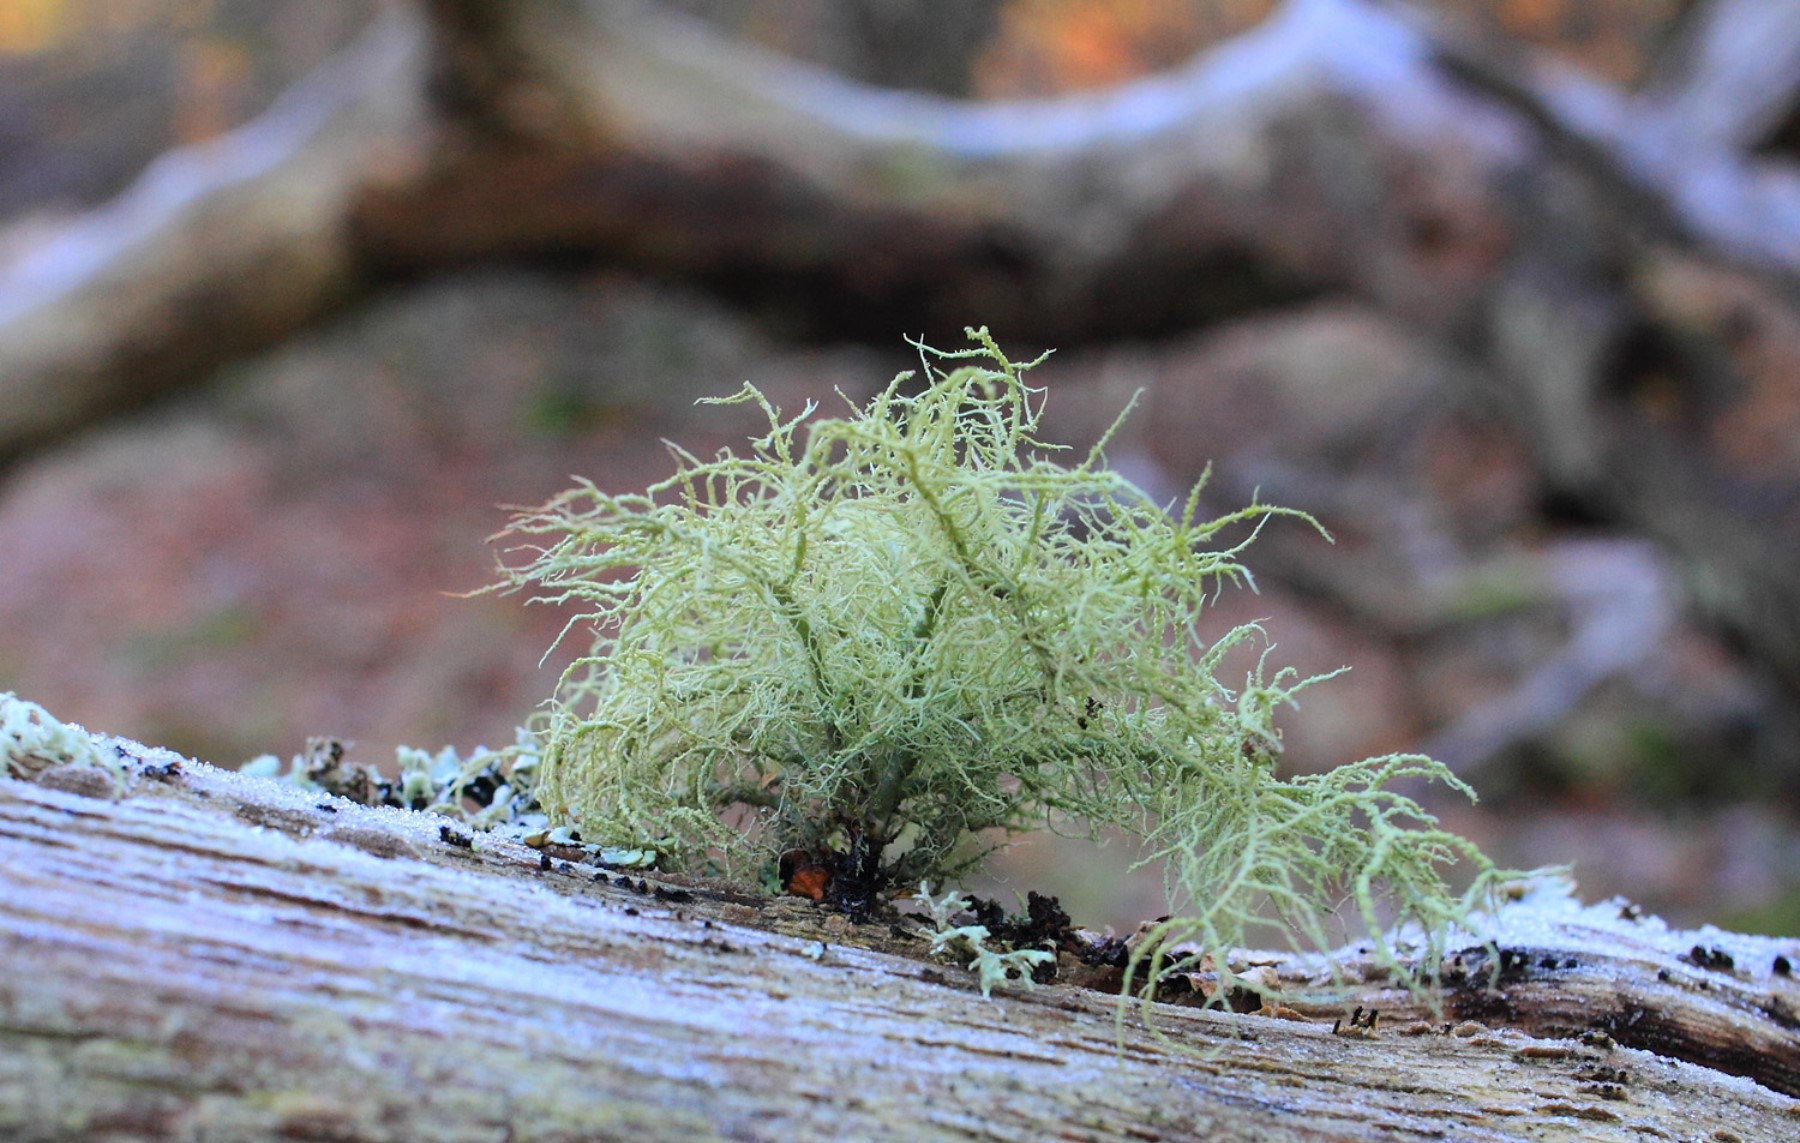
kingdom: Fungi
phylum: Ascomycota
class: Lecanoromycetes
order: Lecanorales
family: Parmeliaceae
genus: Usnea
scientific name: Usnea subfloridana
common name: busket skæglav
